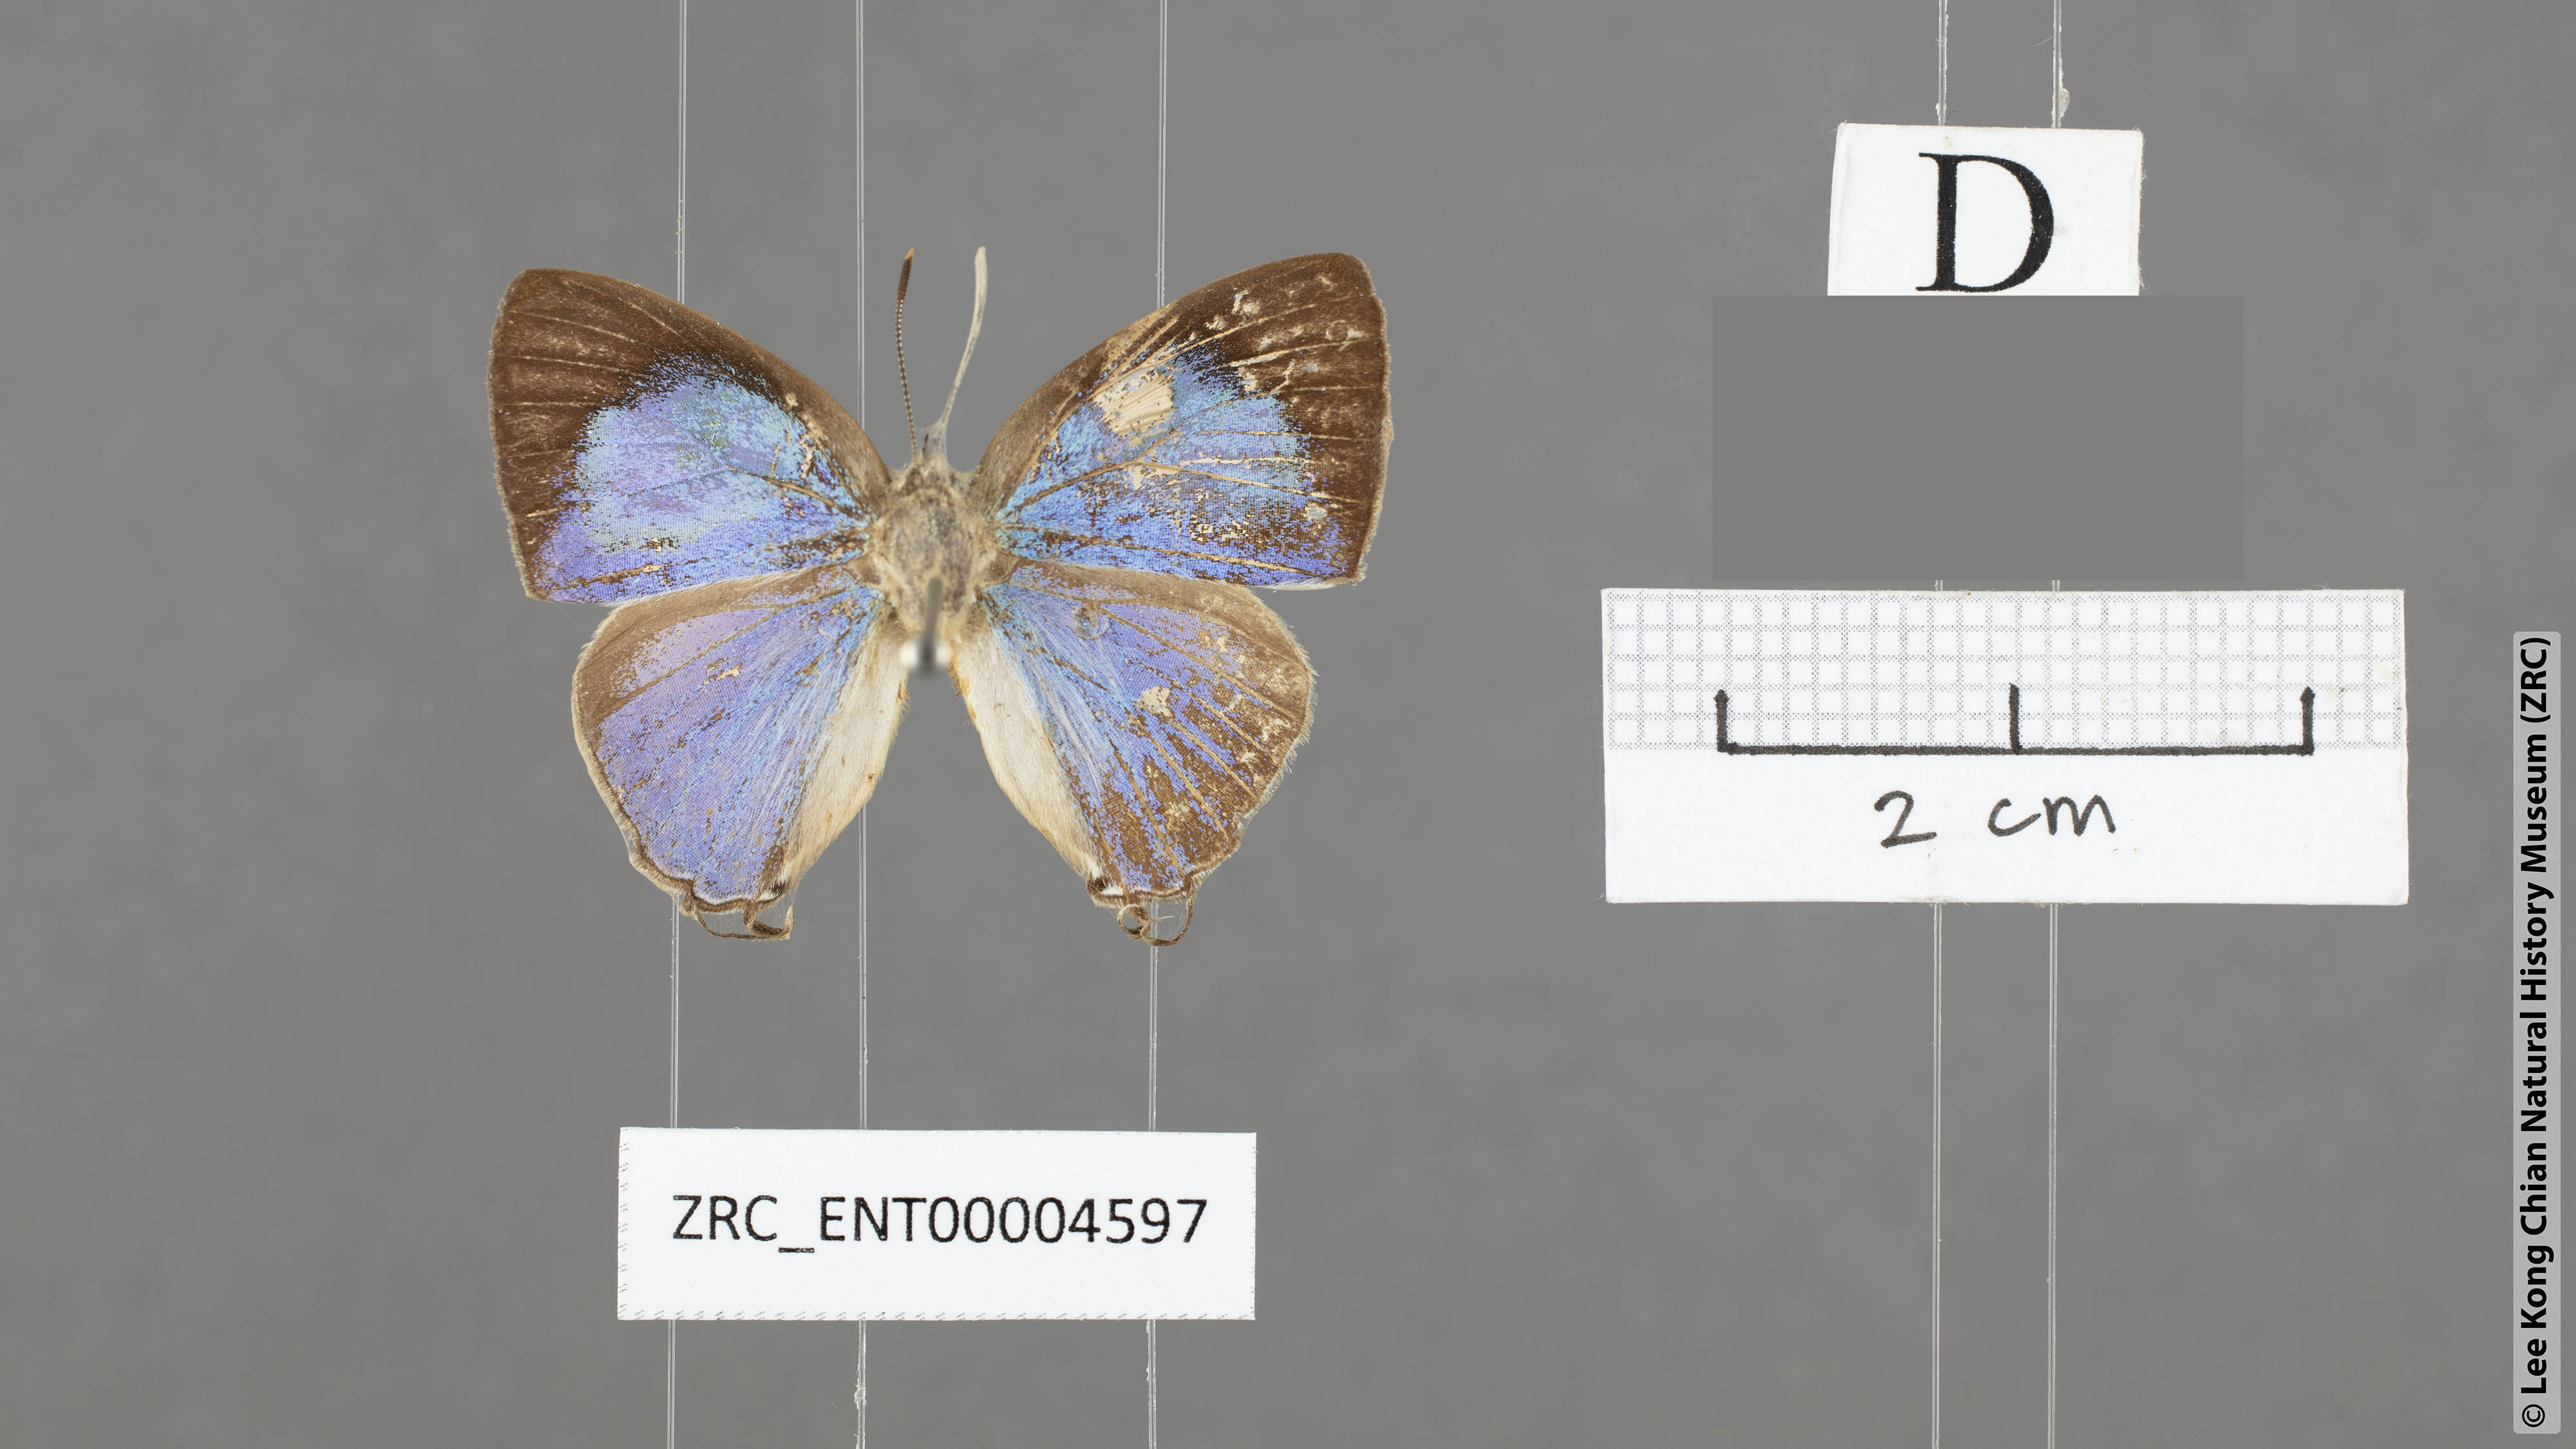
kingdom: Animalia
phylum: Arthropoda
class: Insecta
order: Lepidoptera
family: Lycaenidae
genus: Tajuria
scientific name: Tajuria isaeus
